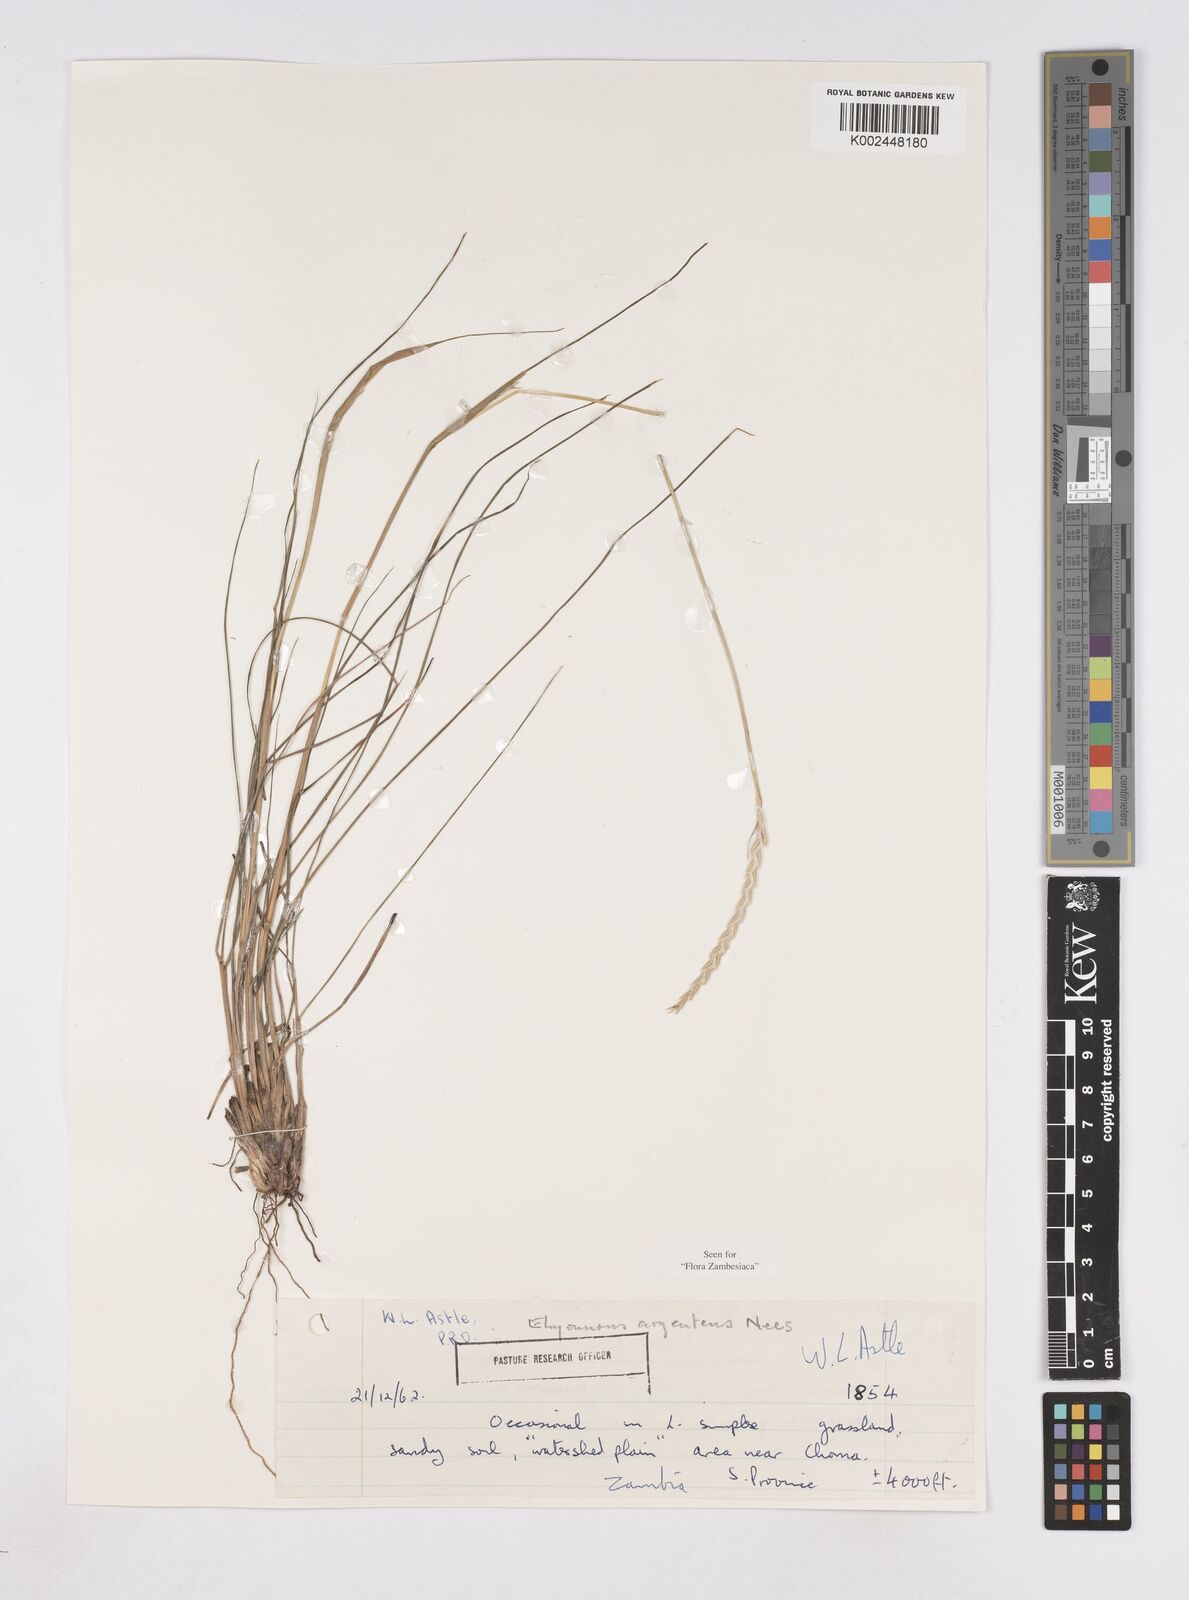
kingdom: Plantae
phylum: Tracheophyta
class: Liliopsida
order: Poales
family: Poaceae
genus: Elionurus
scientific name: Elionurus muticus
